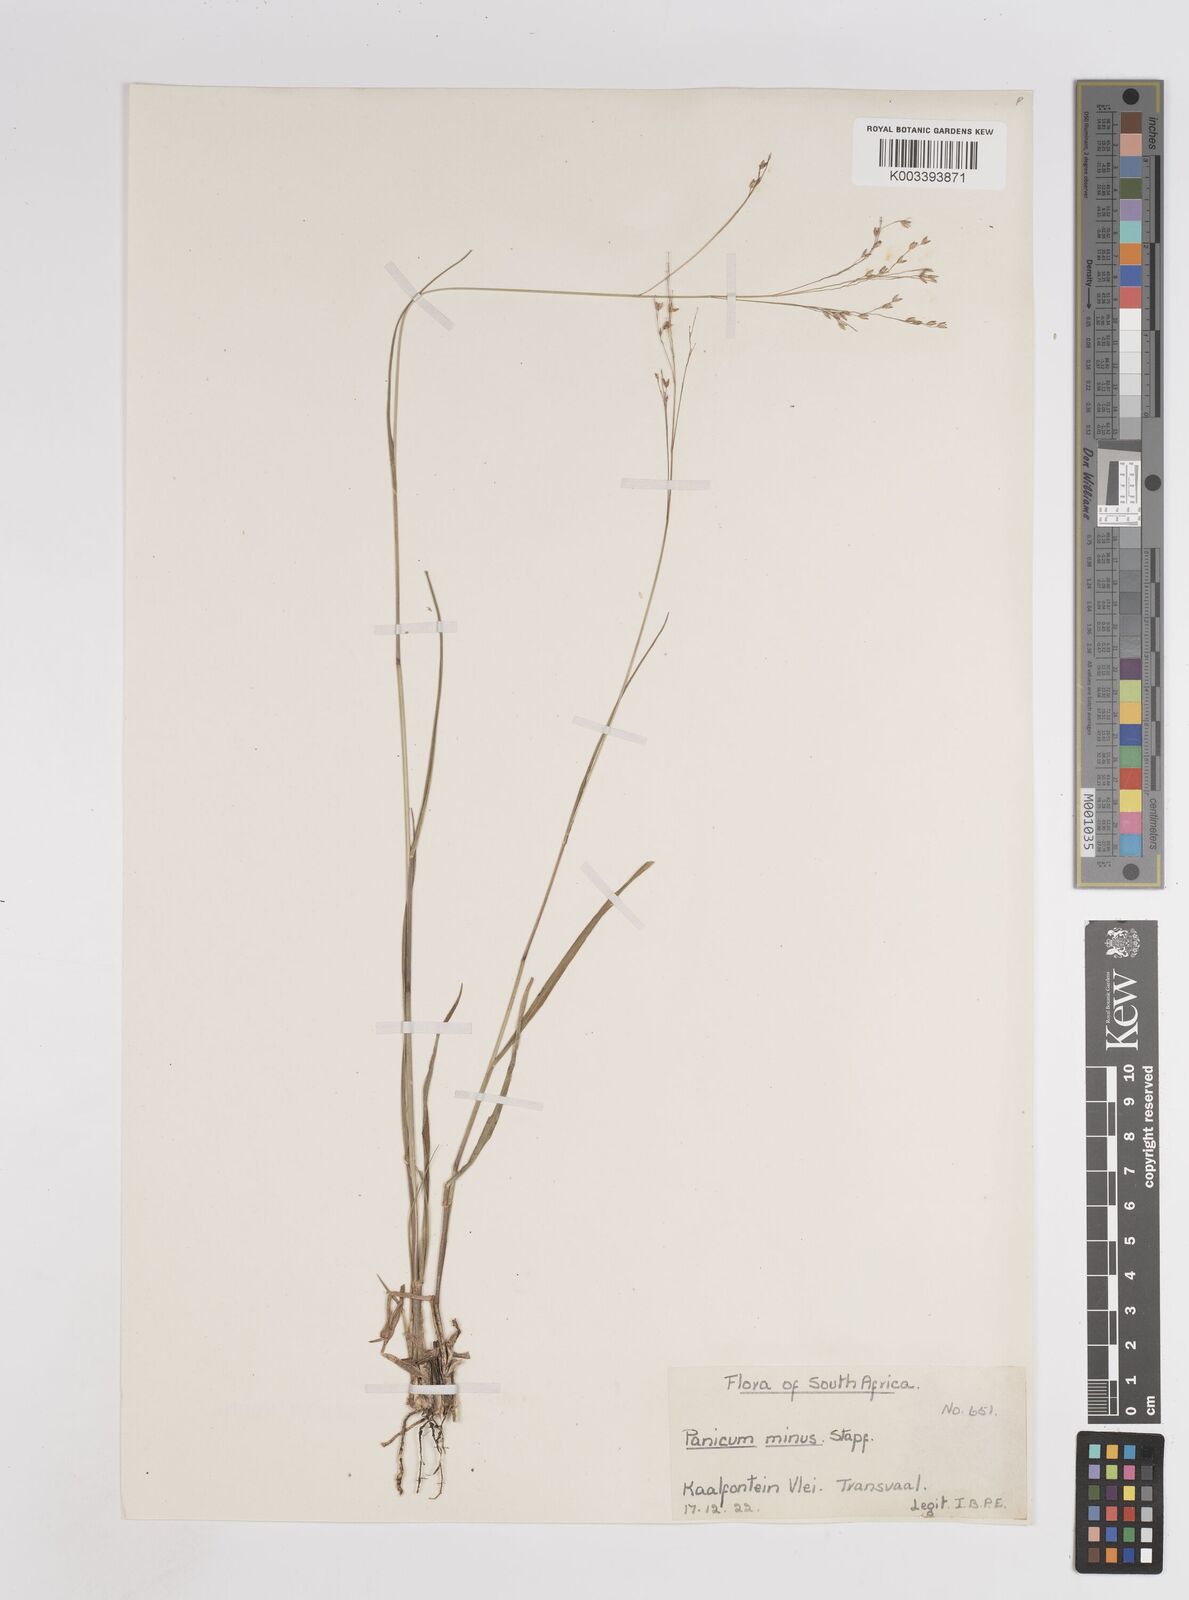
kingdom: Plantae
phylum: Tracheophyta
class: Liliopsida
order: Poales
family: Poaceae
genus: Panicum
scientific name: Panicum stapfianum
